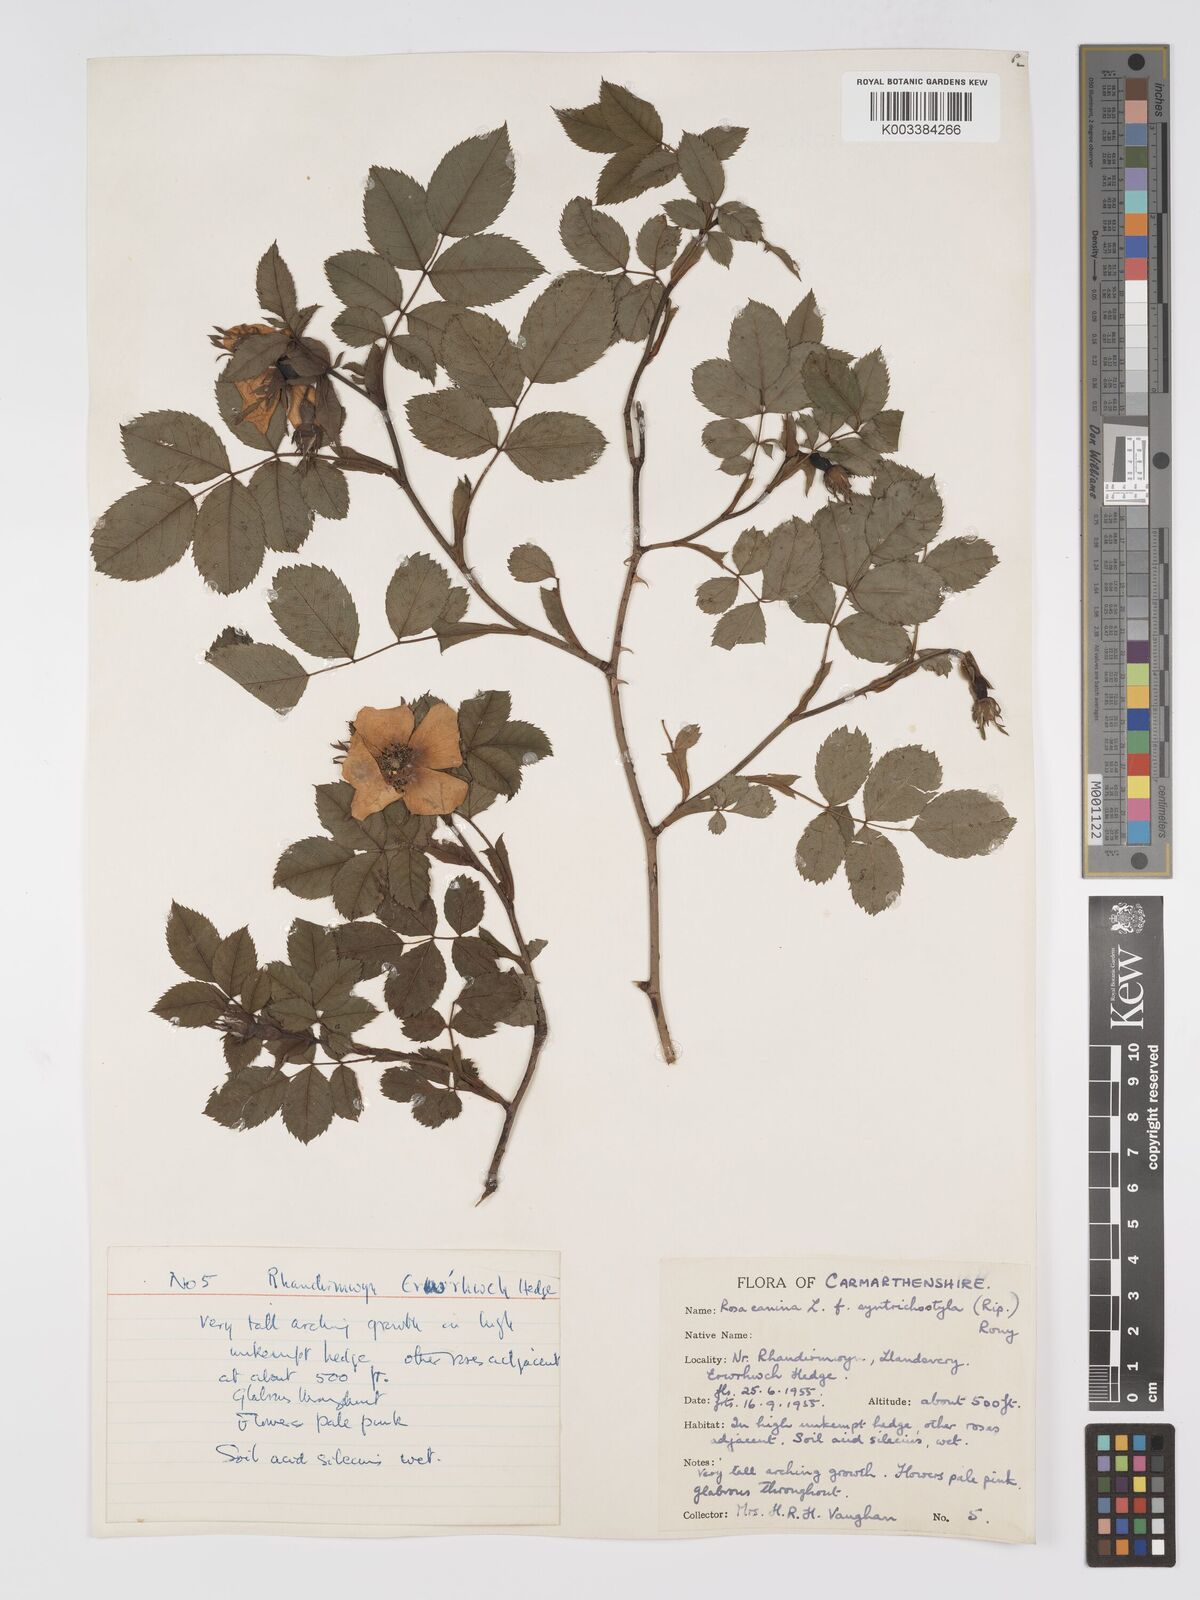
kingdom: Plantae
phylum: Tracheophyta
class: Magnoliopsida
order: Rosales
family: Rosaceae
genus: Rosa
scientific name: Rosa canina
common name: Dog rose
